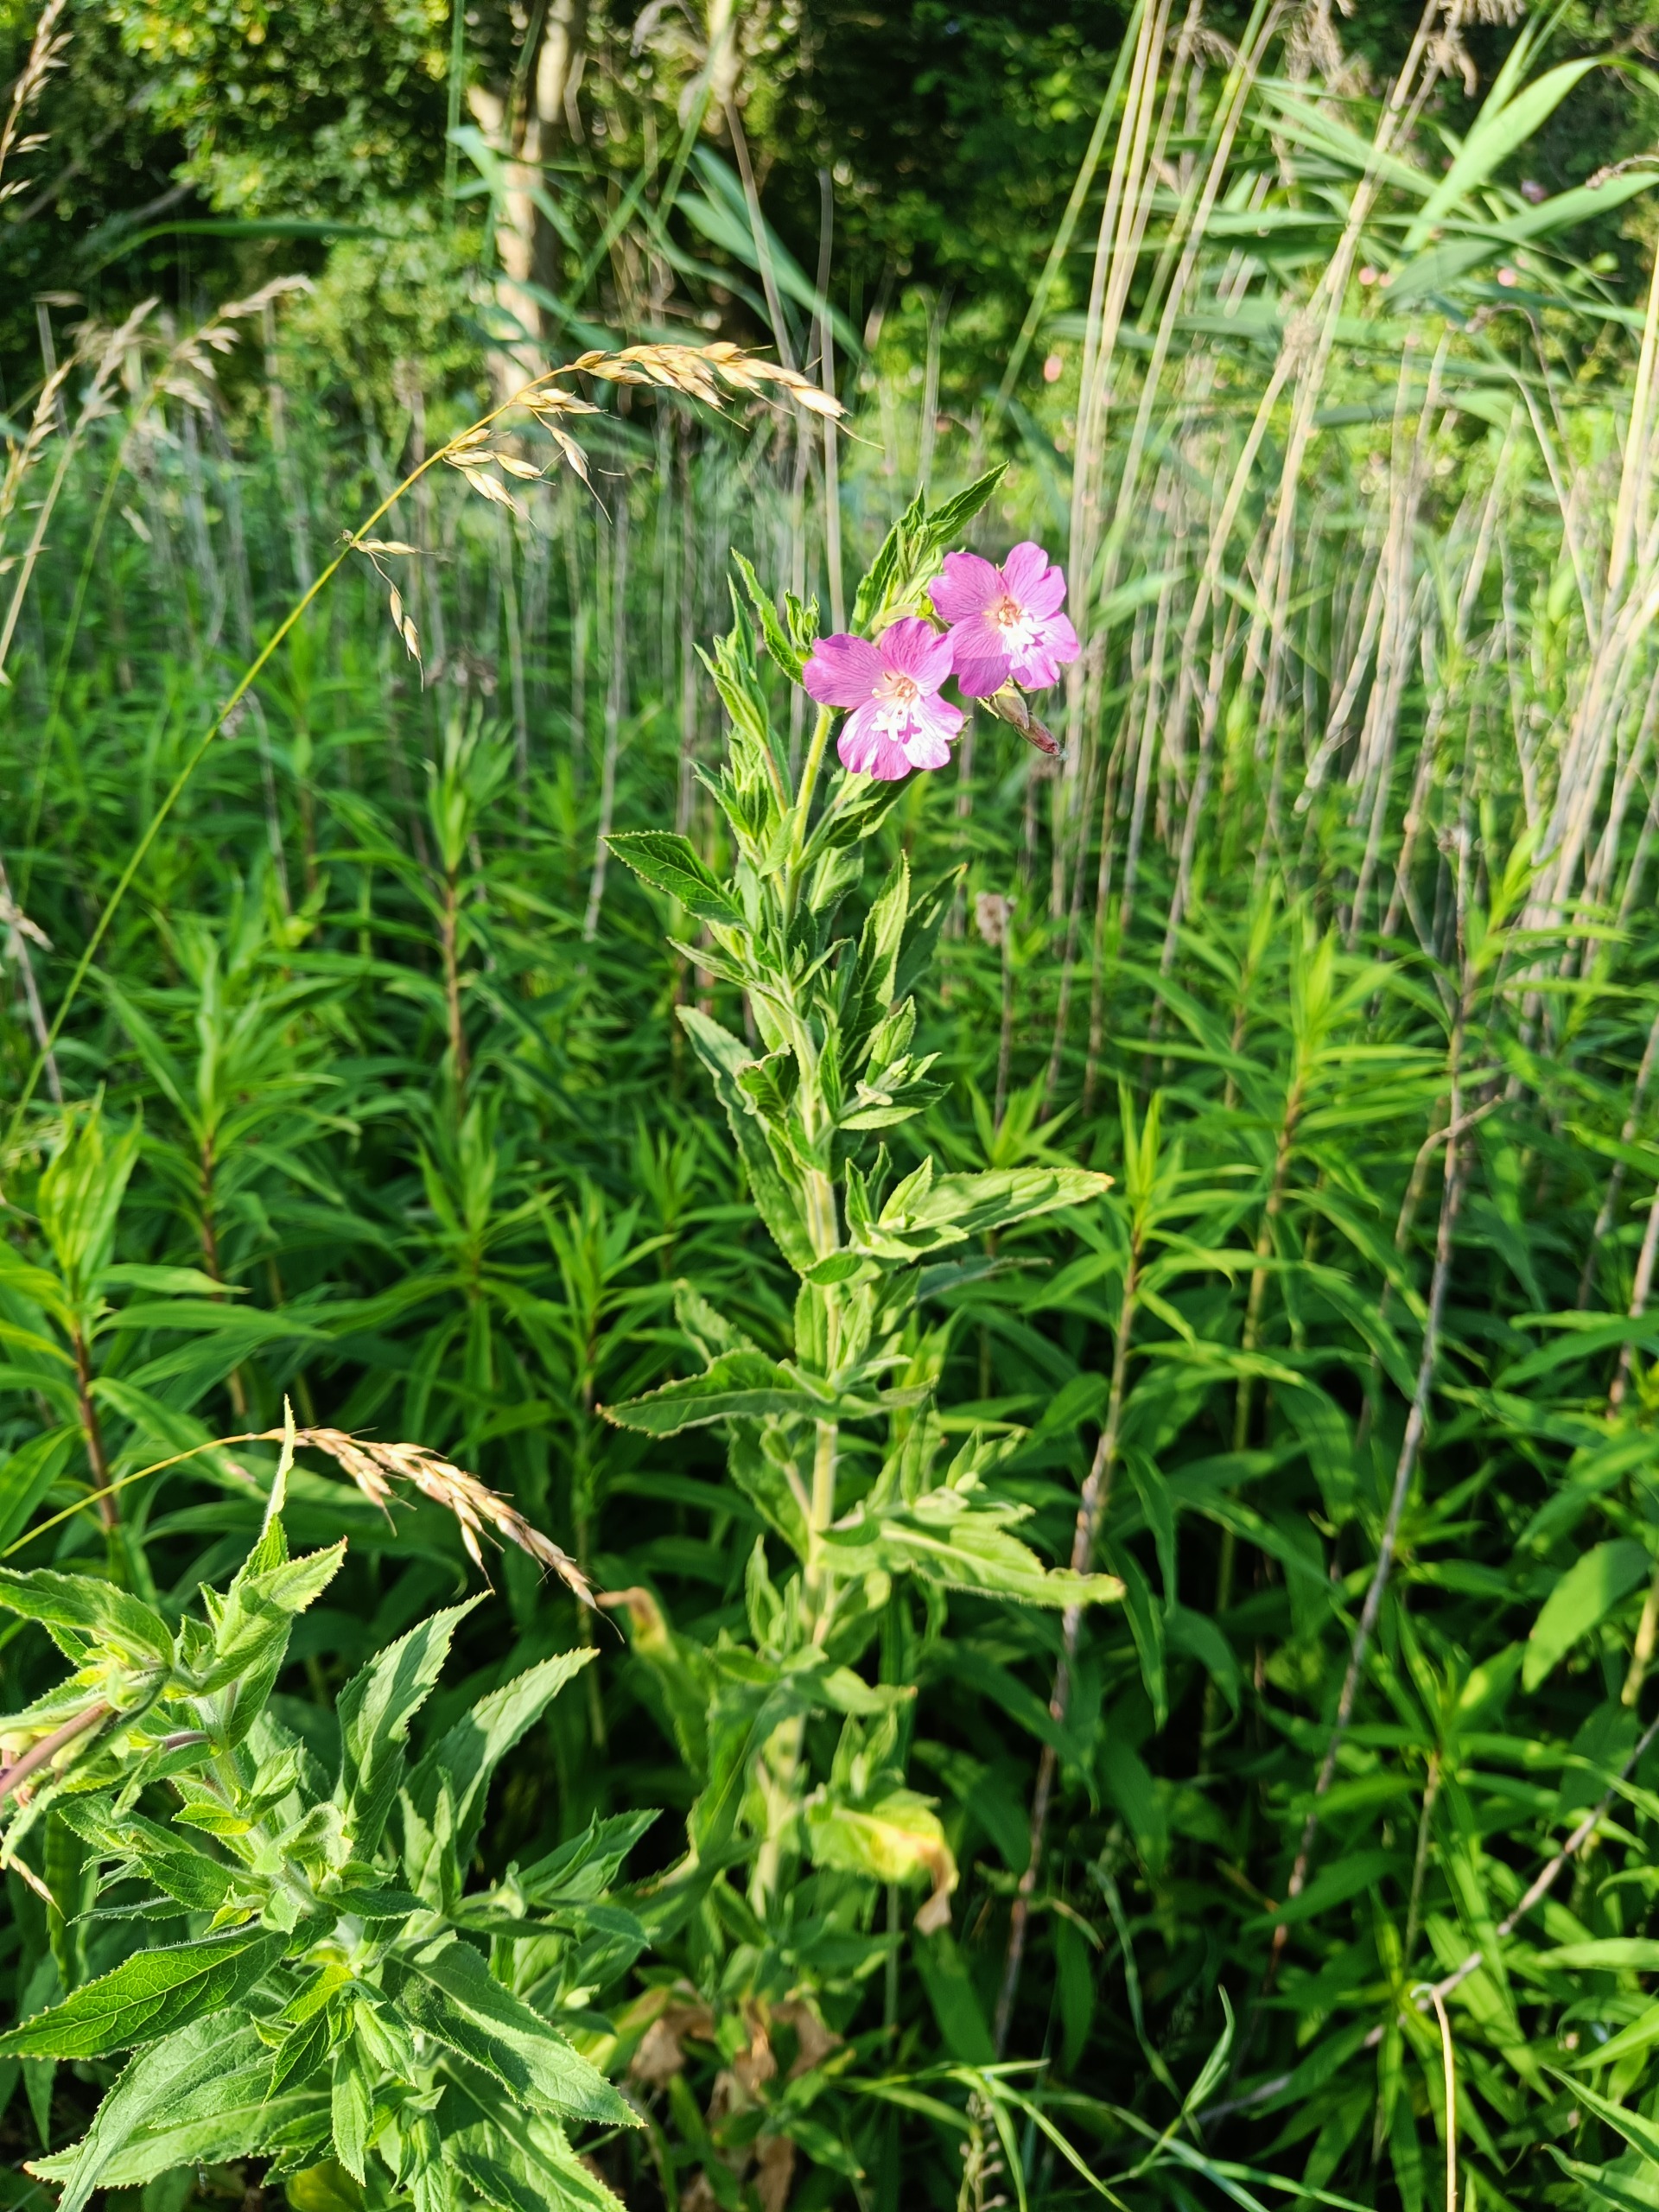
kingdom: Plantae
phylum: Tracheophyta
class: Magnoliopsida
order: Myrtales
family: Onagraceae
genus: Epilobium
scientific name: Epilobium hirsutum
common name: Lådden dueurt
